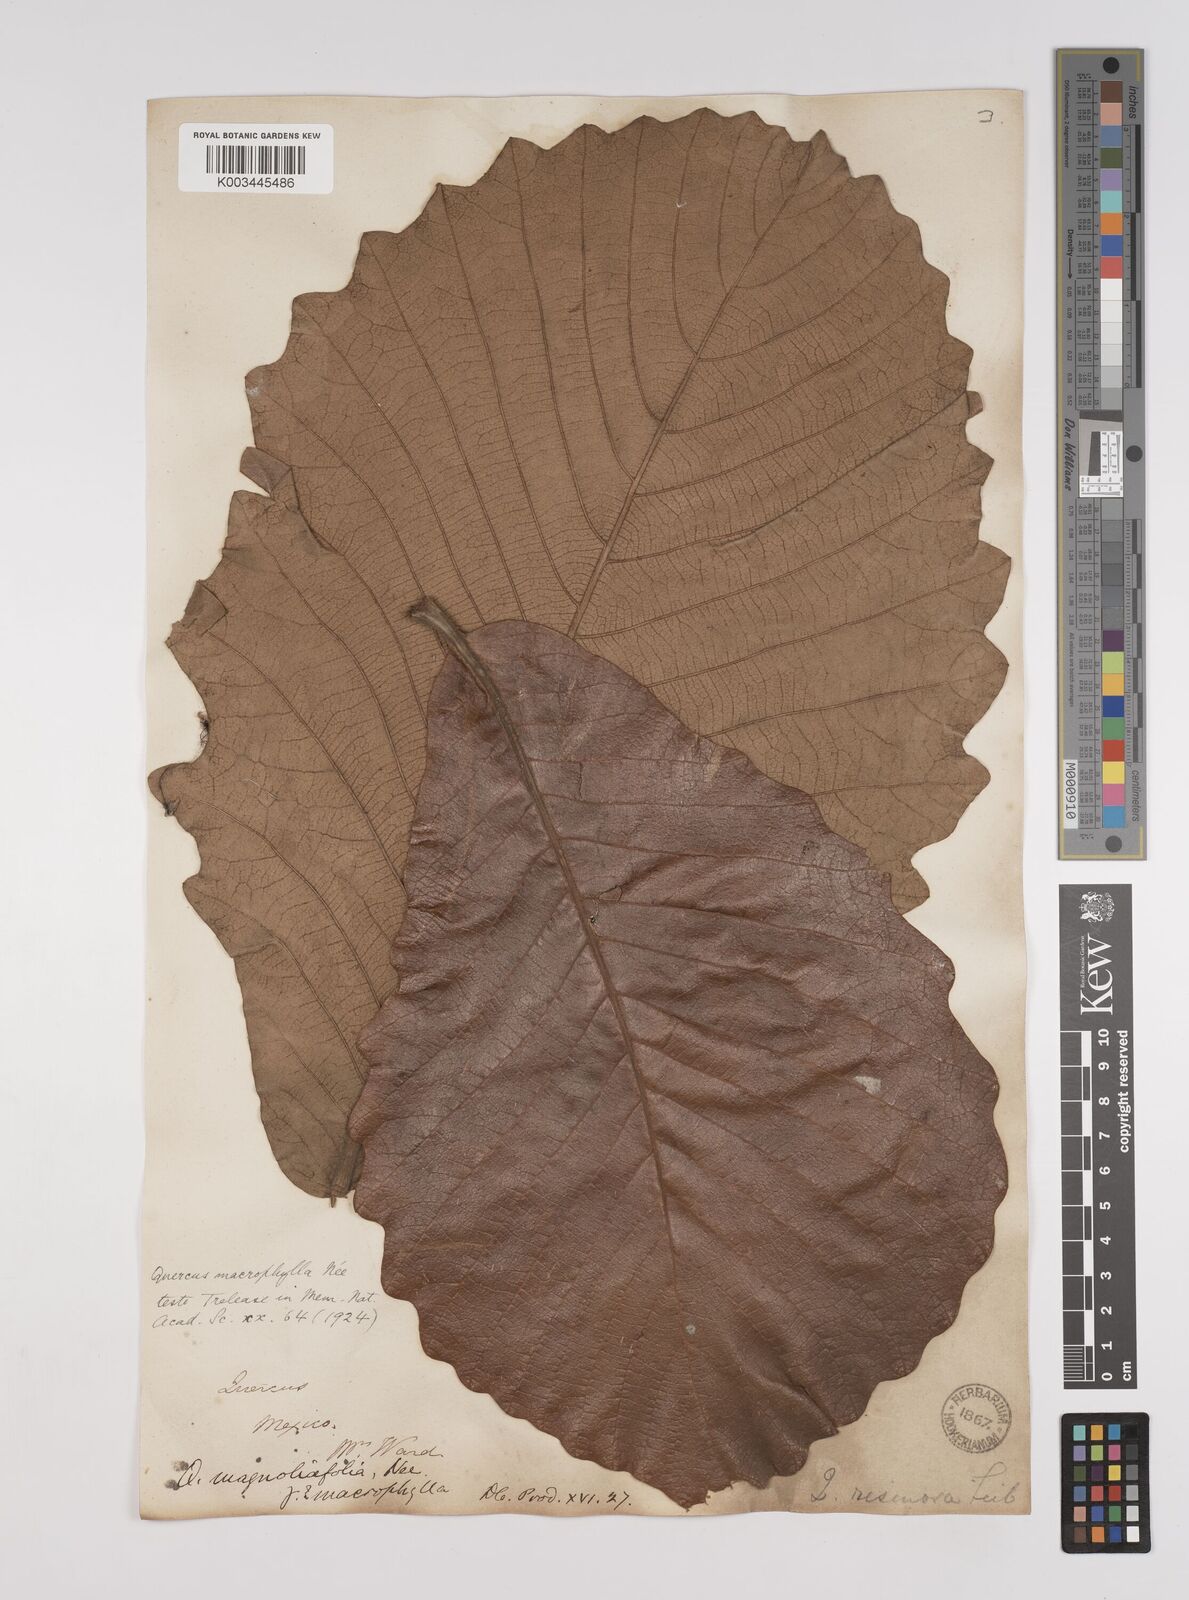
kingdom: Plantae
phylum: Tracheophyta
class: Magnoliopsida
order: Fagales
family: Fagaceae
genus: Quercus
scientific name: Quercus
